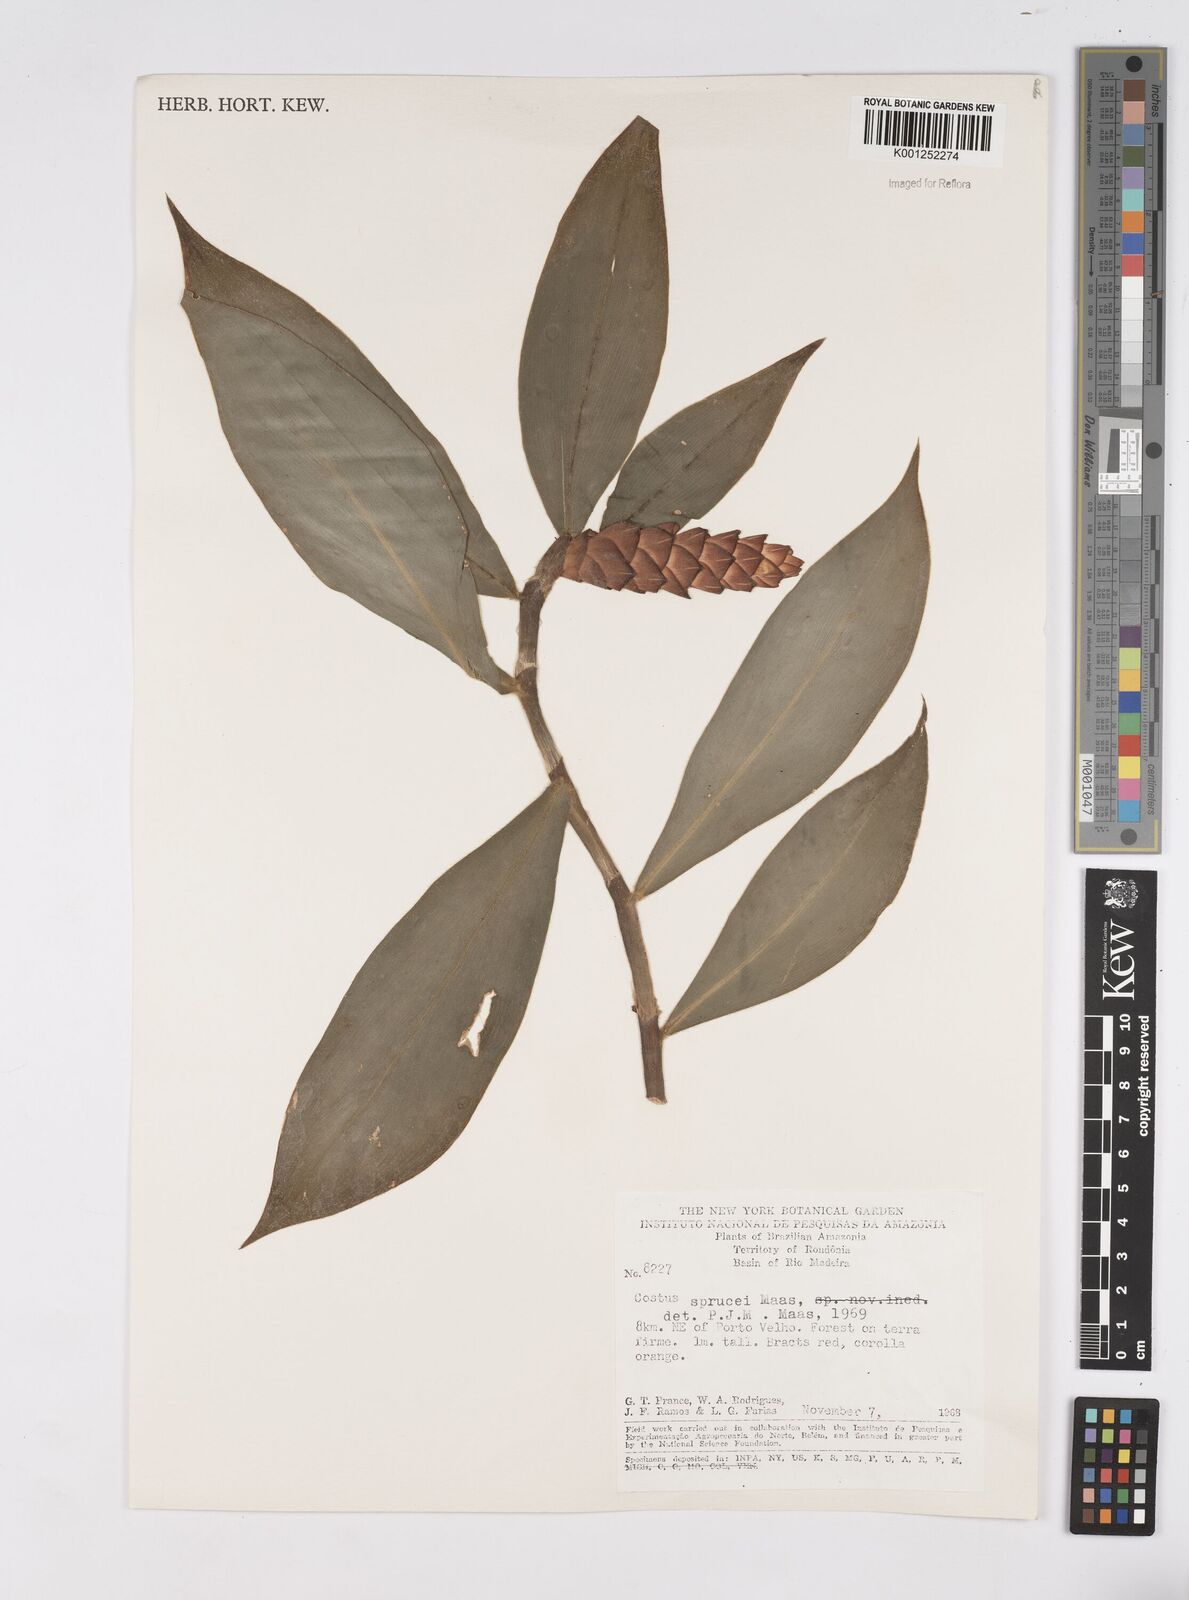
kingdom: Plantae
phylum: Tracheophyta
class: Liliopsida
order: Zingiberales
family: Costaceae
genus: Costus
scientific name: Costus sprucei
